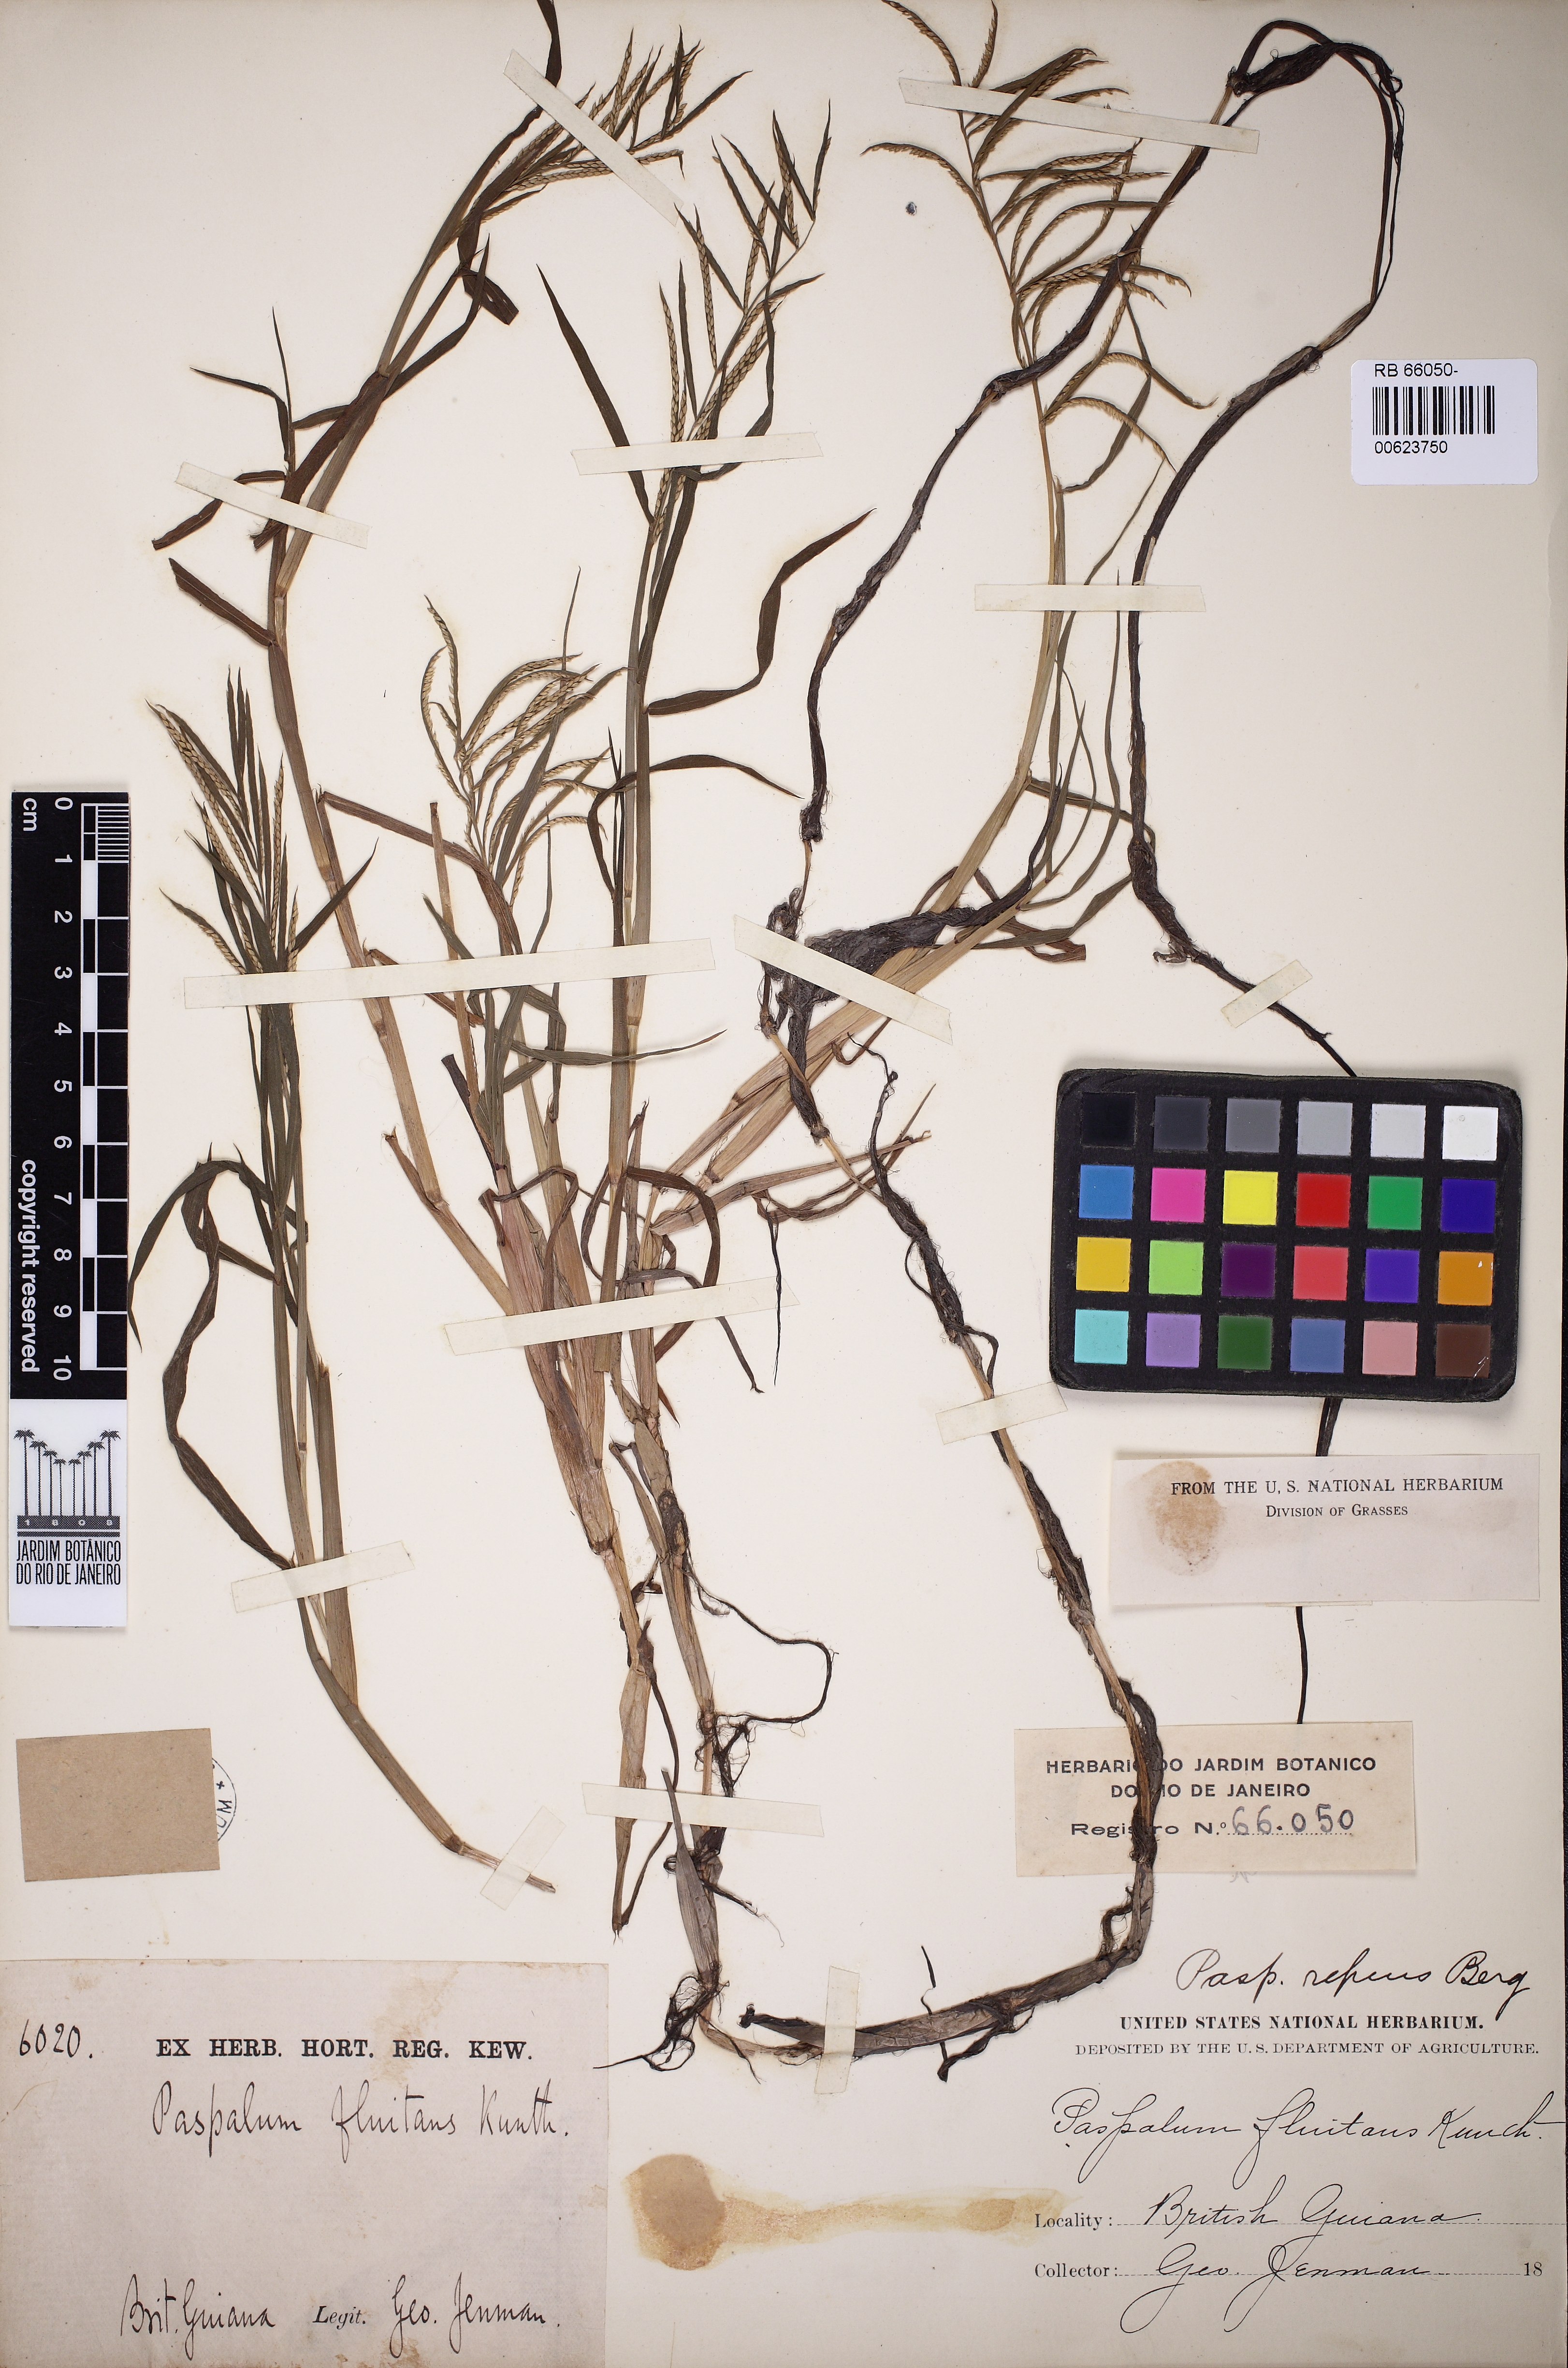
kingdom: Plantae
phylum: Tracheophyta
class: Liliopsida
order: Poales
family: Poaceae
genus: Paspalum
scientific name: Paspalum repens
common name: Water paspalum
